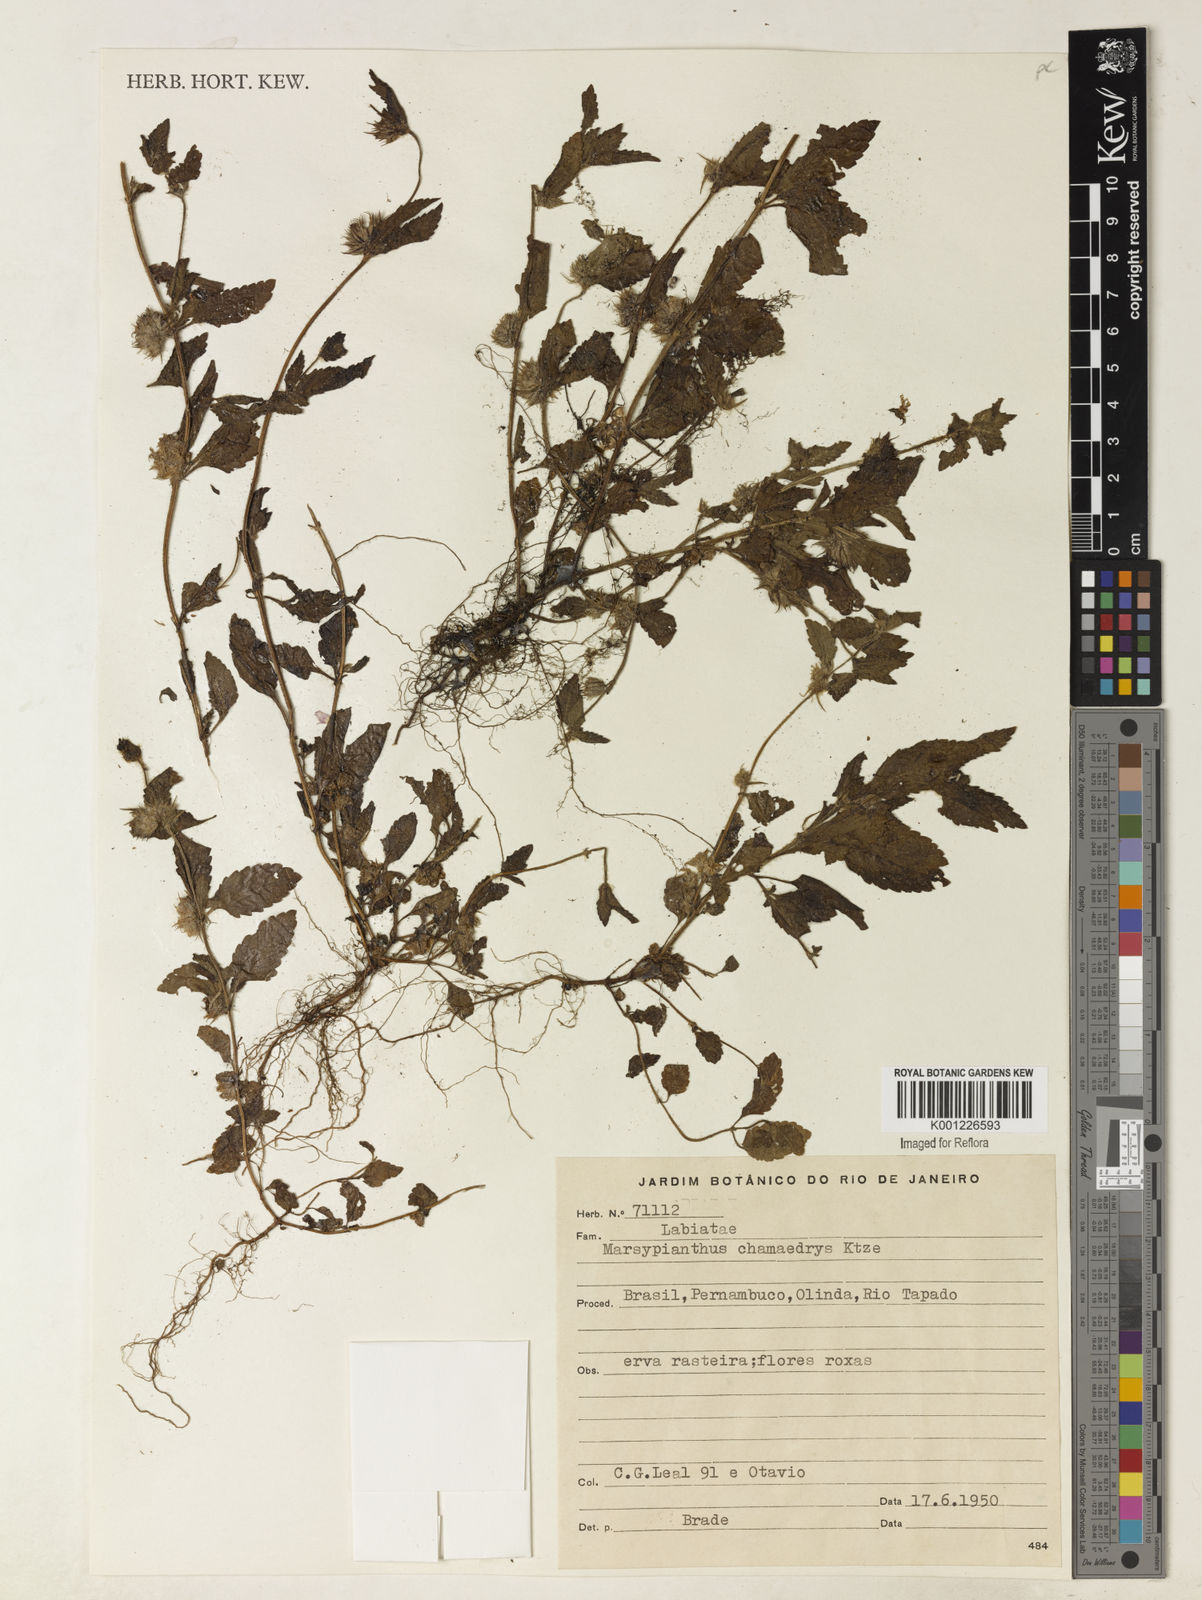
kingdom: Plantae
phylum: Tracheophyta
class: Magnoliopsida
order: Lamiales
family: Lamiaceae
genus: Marsypianthes
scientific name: Marsypianthes chamaedrys
